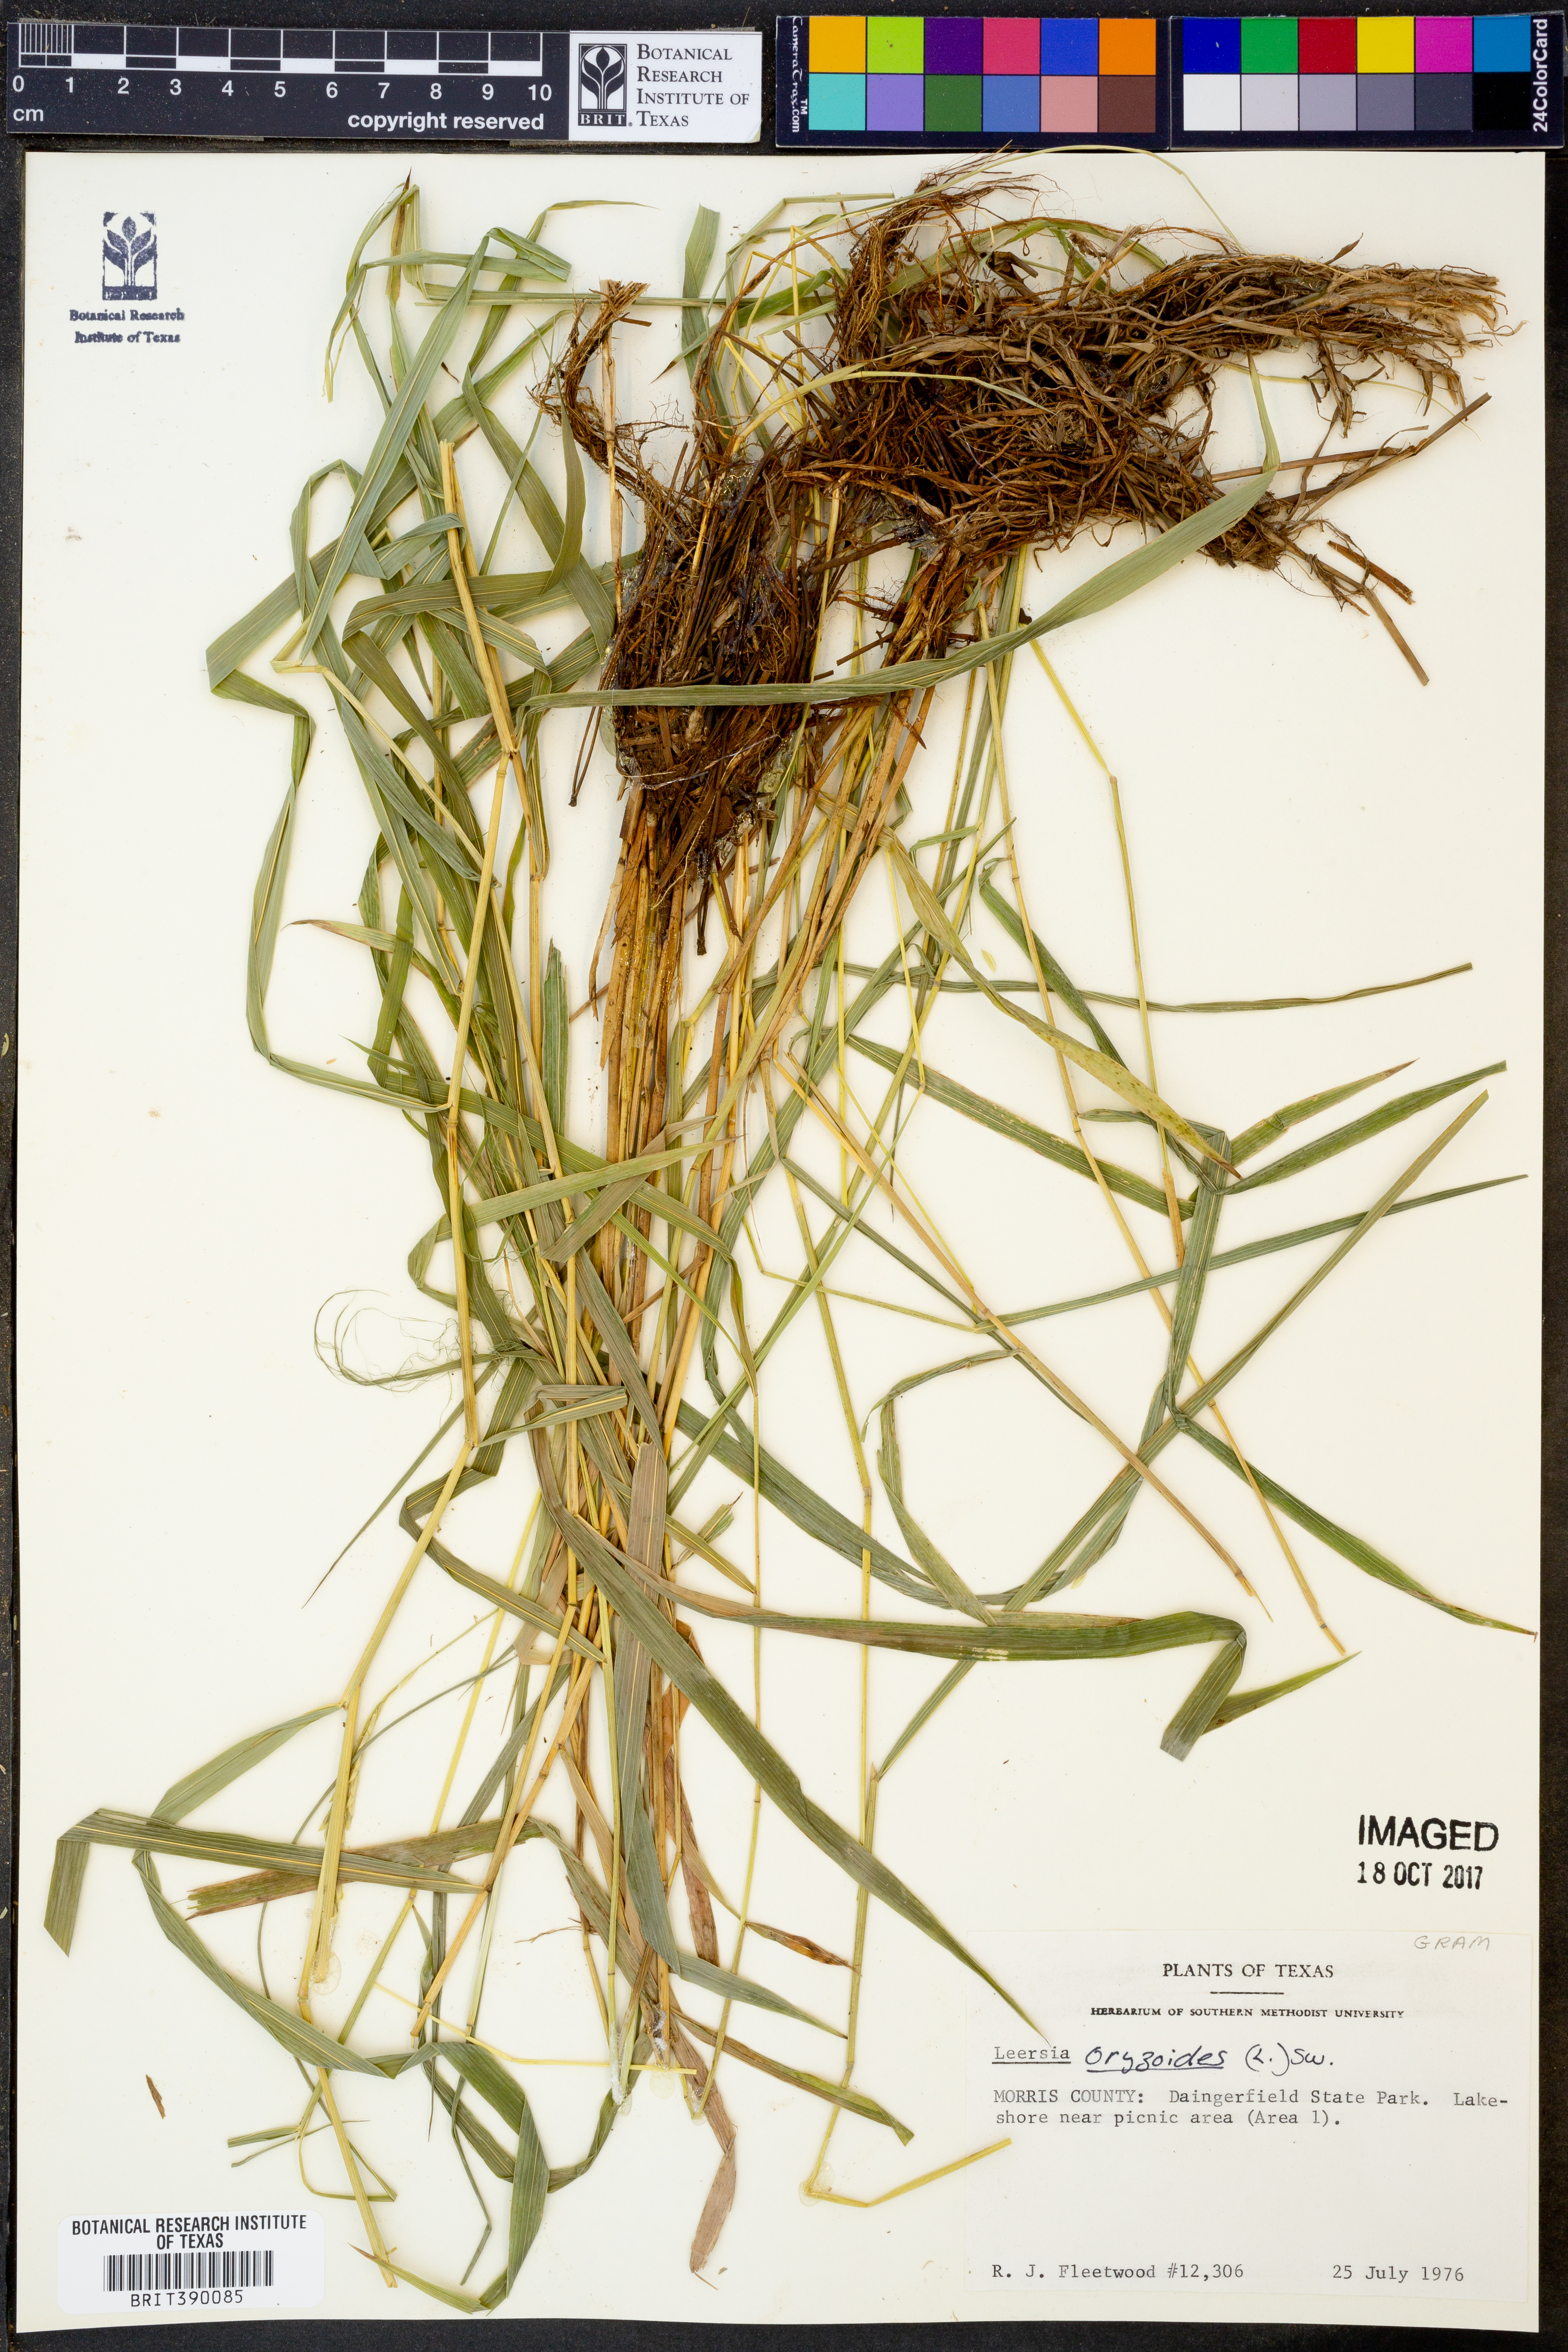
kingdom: Plantae
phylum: Tracheophyta
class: Liliopsida
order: Poales
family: Poaceae
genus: Leersia
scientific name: Leersia oryzoides
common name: Cut-grass
